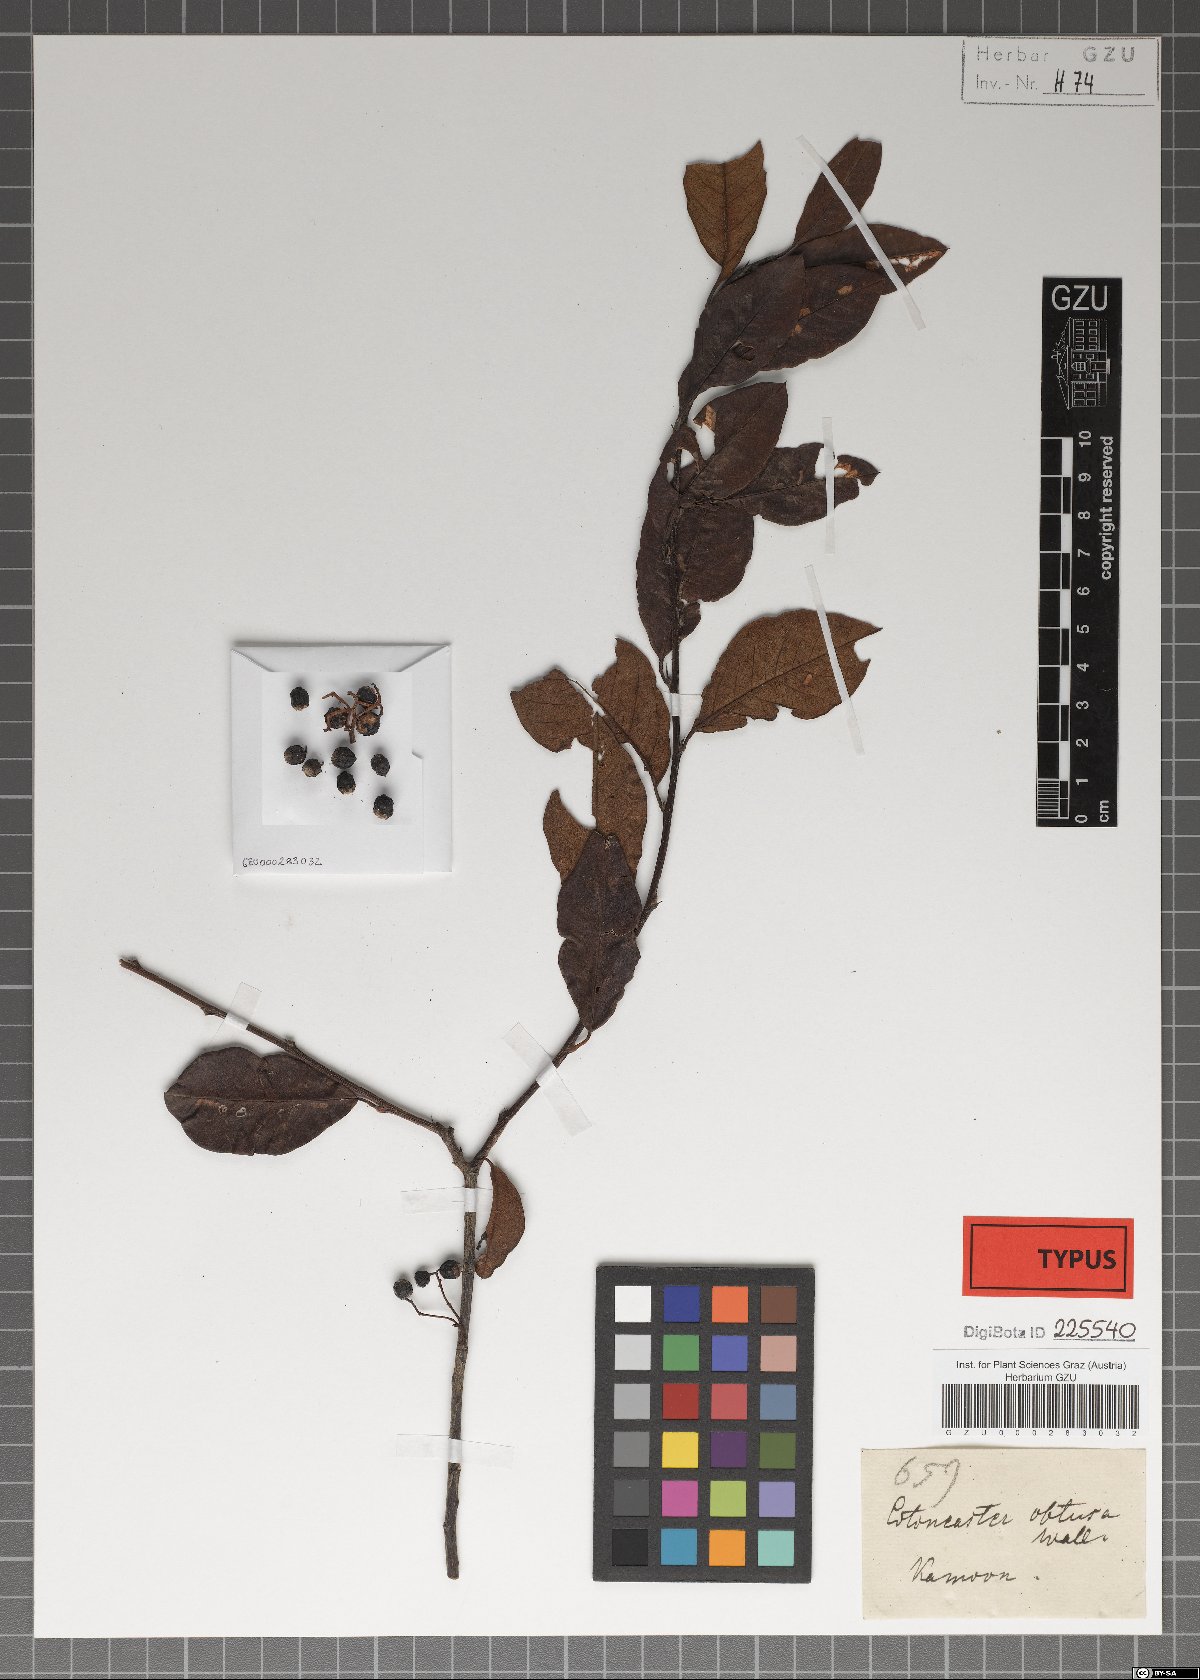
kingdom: Plantae
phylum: Tracheophyta
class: Magnoliopsida
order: Rosales
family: Rosaceae
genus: Cotoneaster
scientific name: Cotoneaster affinis
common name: Purpleberry cotoneaster
